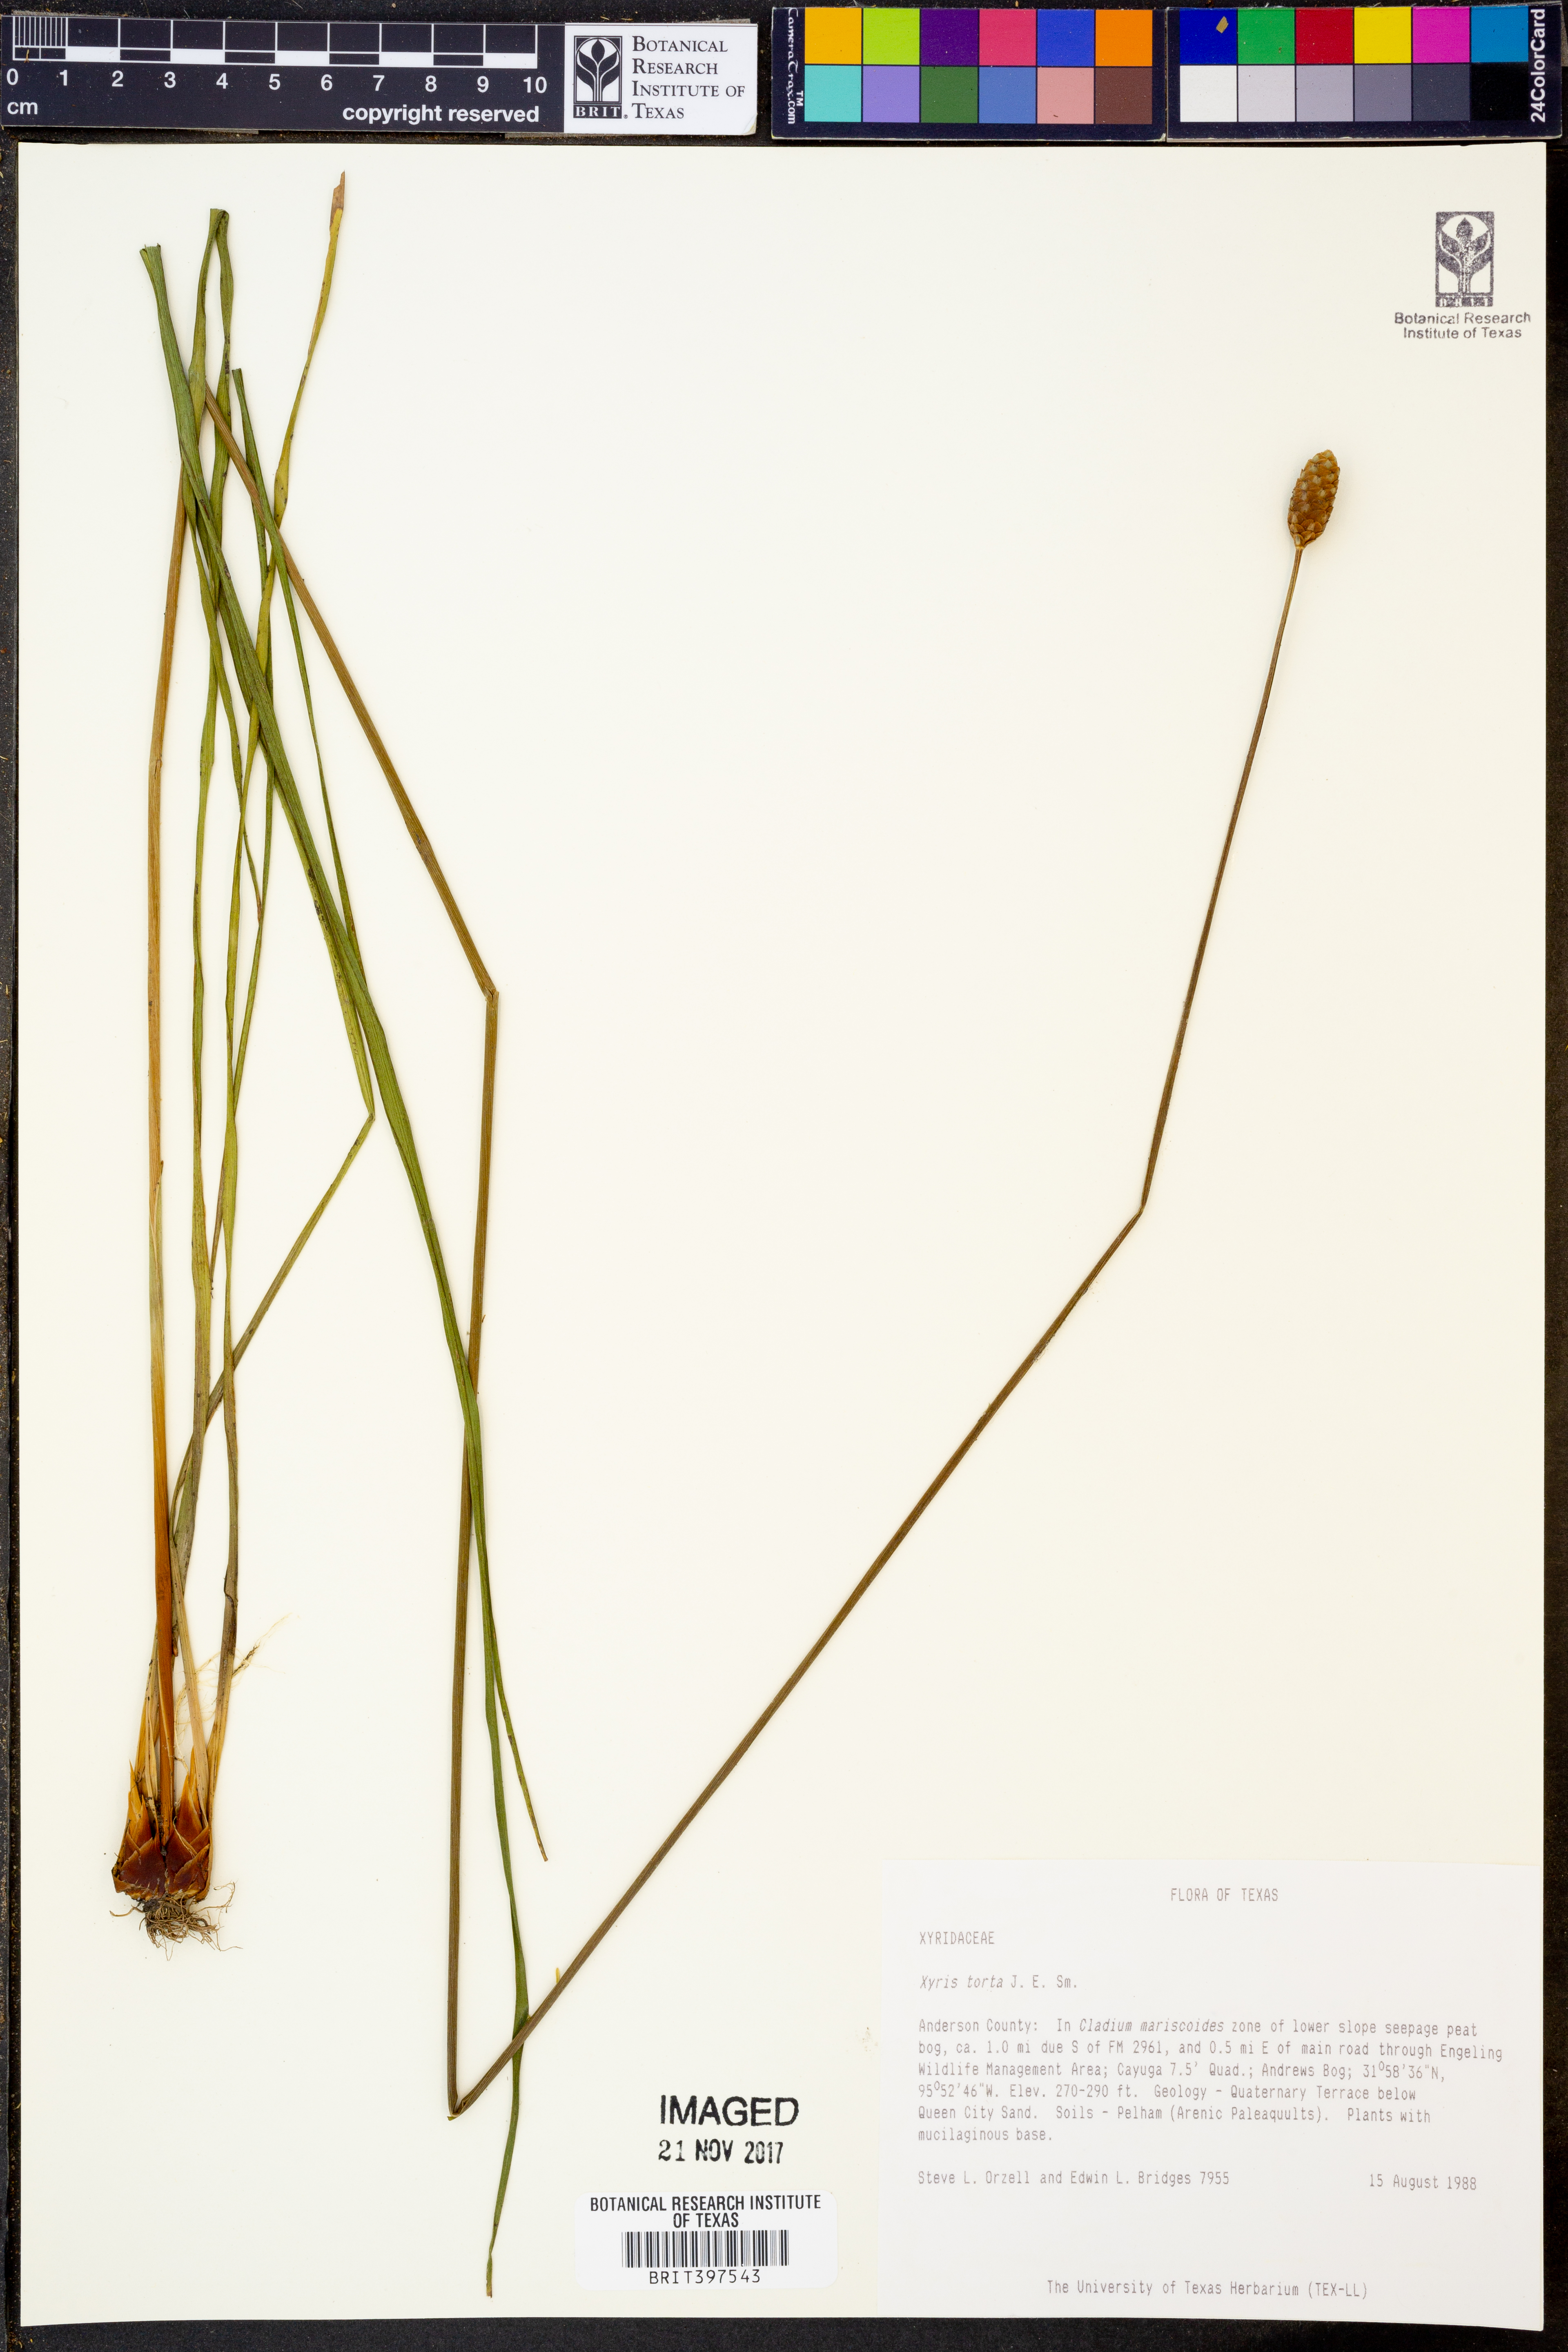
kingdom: Plantae
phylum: Tracheophyta
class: Liliopsida
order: Poales
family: Xyridaceae
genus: Xyris
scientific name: Xyris torta
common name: Common yelloweyed grass
